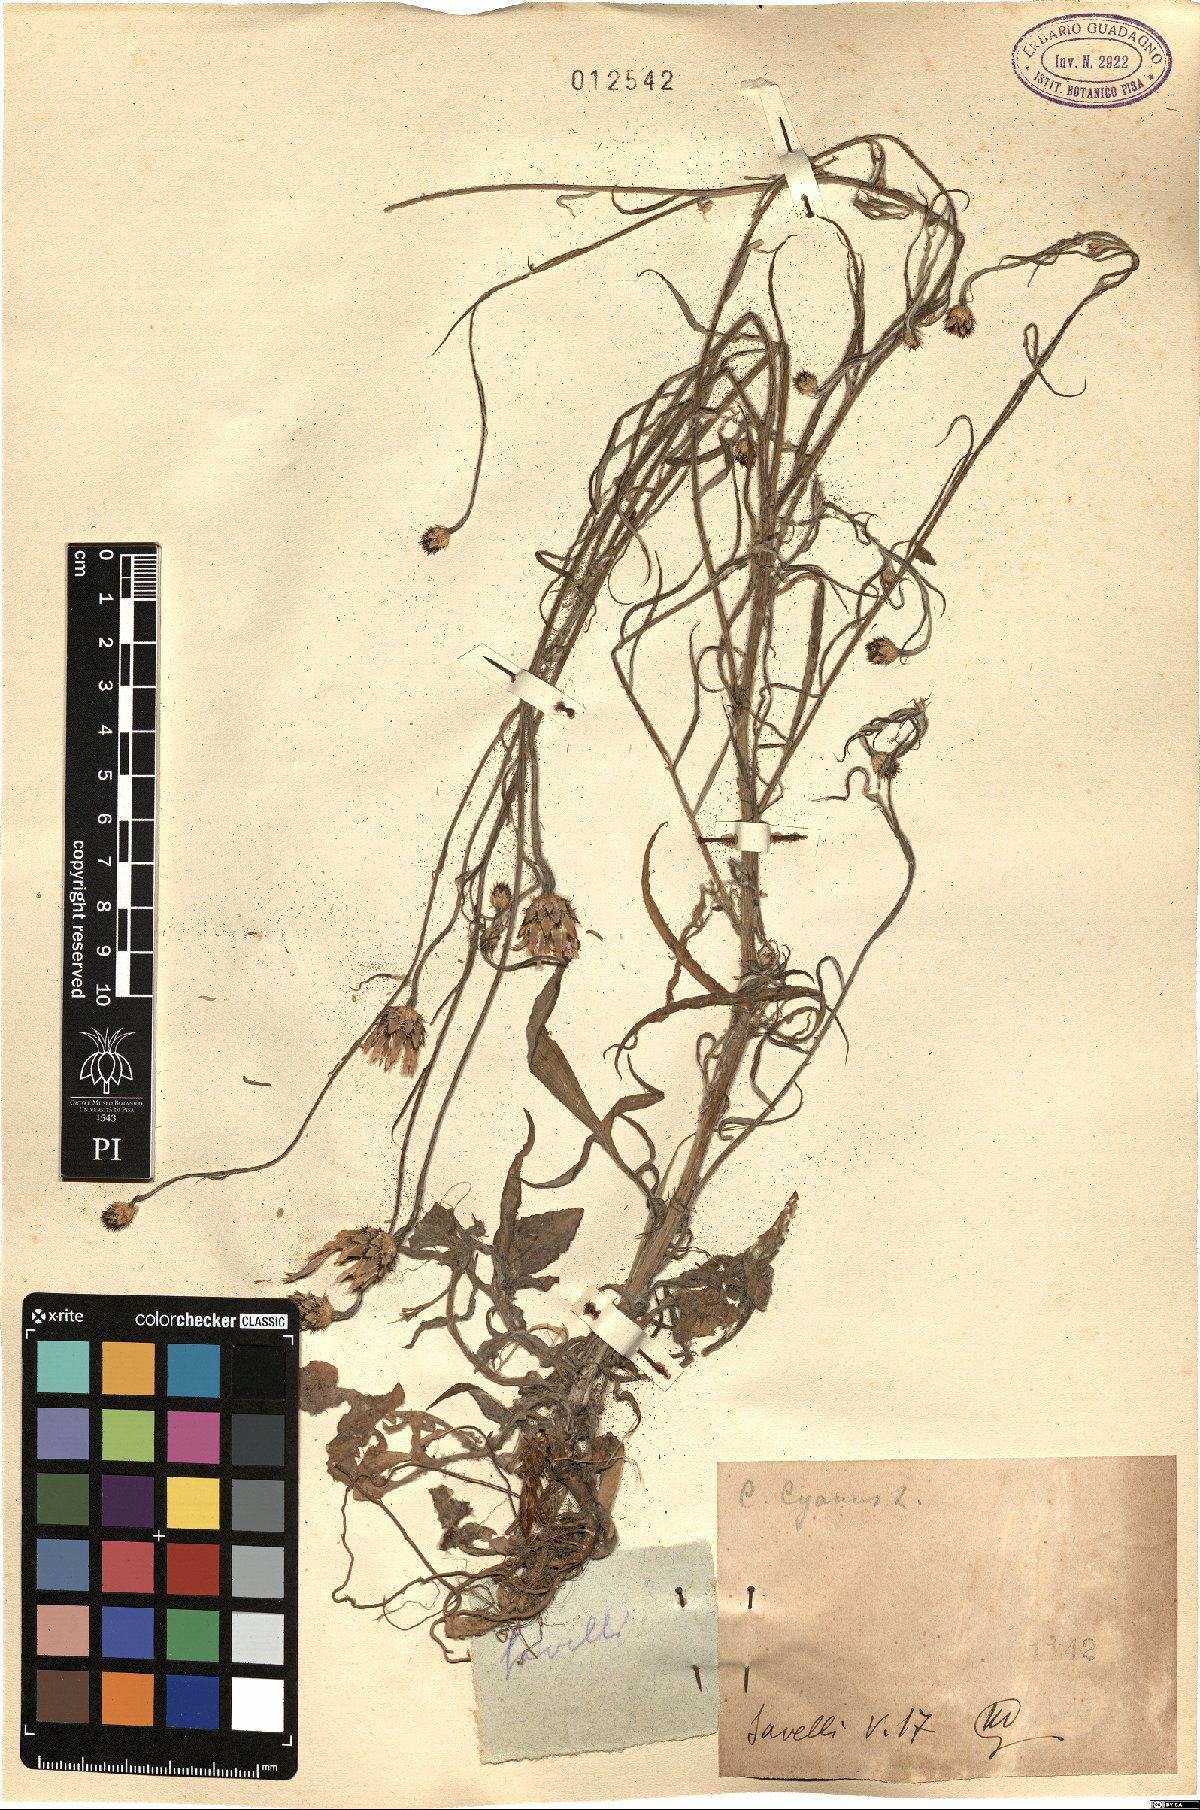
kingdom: Plantae
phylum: Tracheophyta
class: Magnoliopsida
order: Asterales
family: Asteraceae
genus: Centaurea
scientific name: Centaurea cyanus
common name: Cornflower
